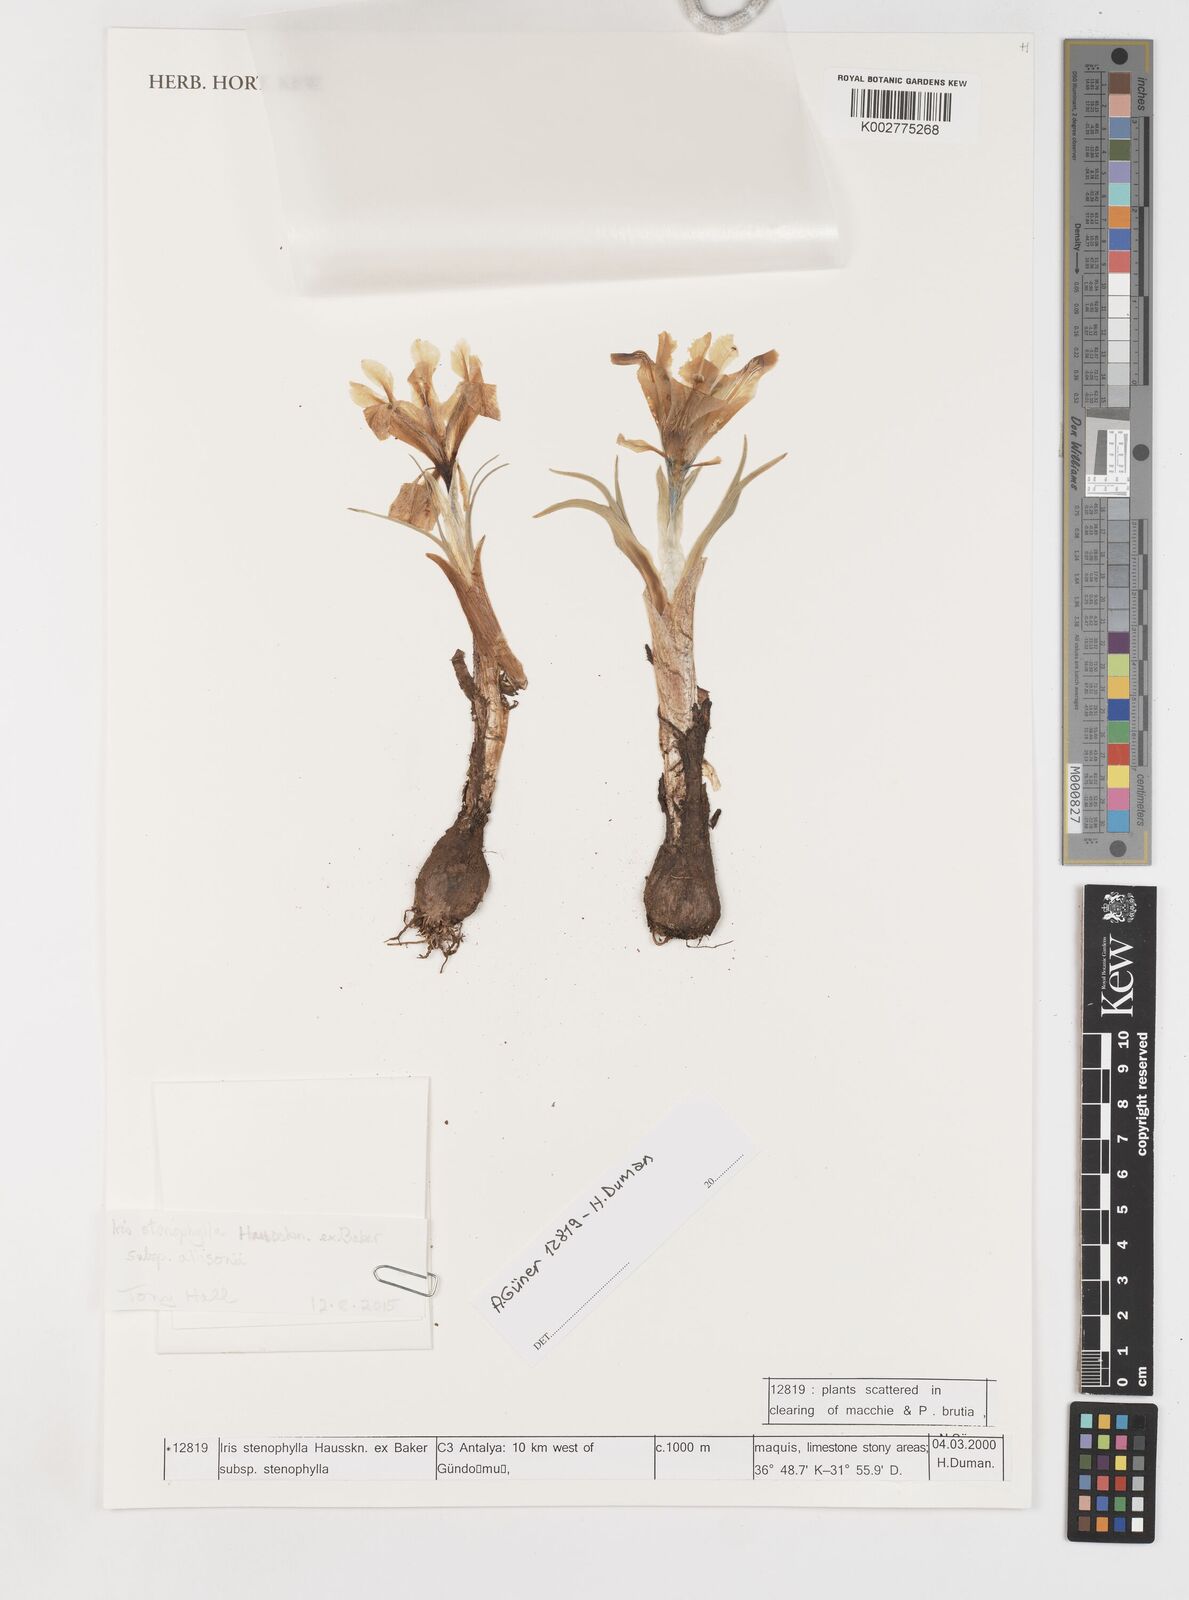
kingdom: Plantae
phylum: Tracheophyta
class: Liliopsida
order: Asparagales
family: Iridaceae
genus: Iris
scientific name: Iris stenophylla
